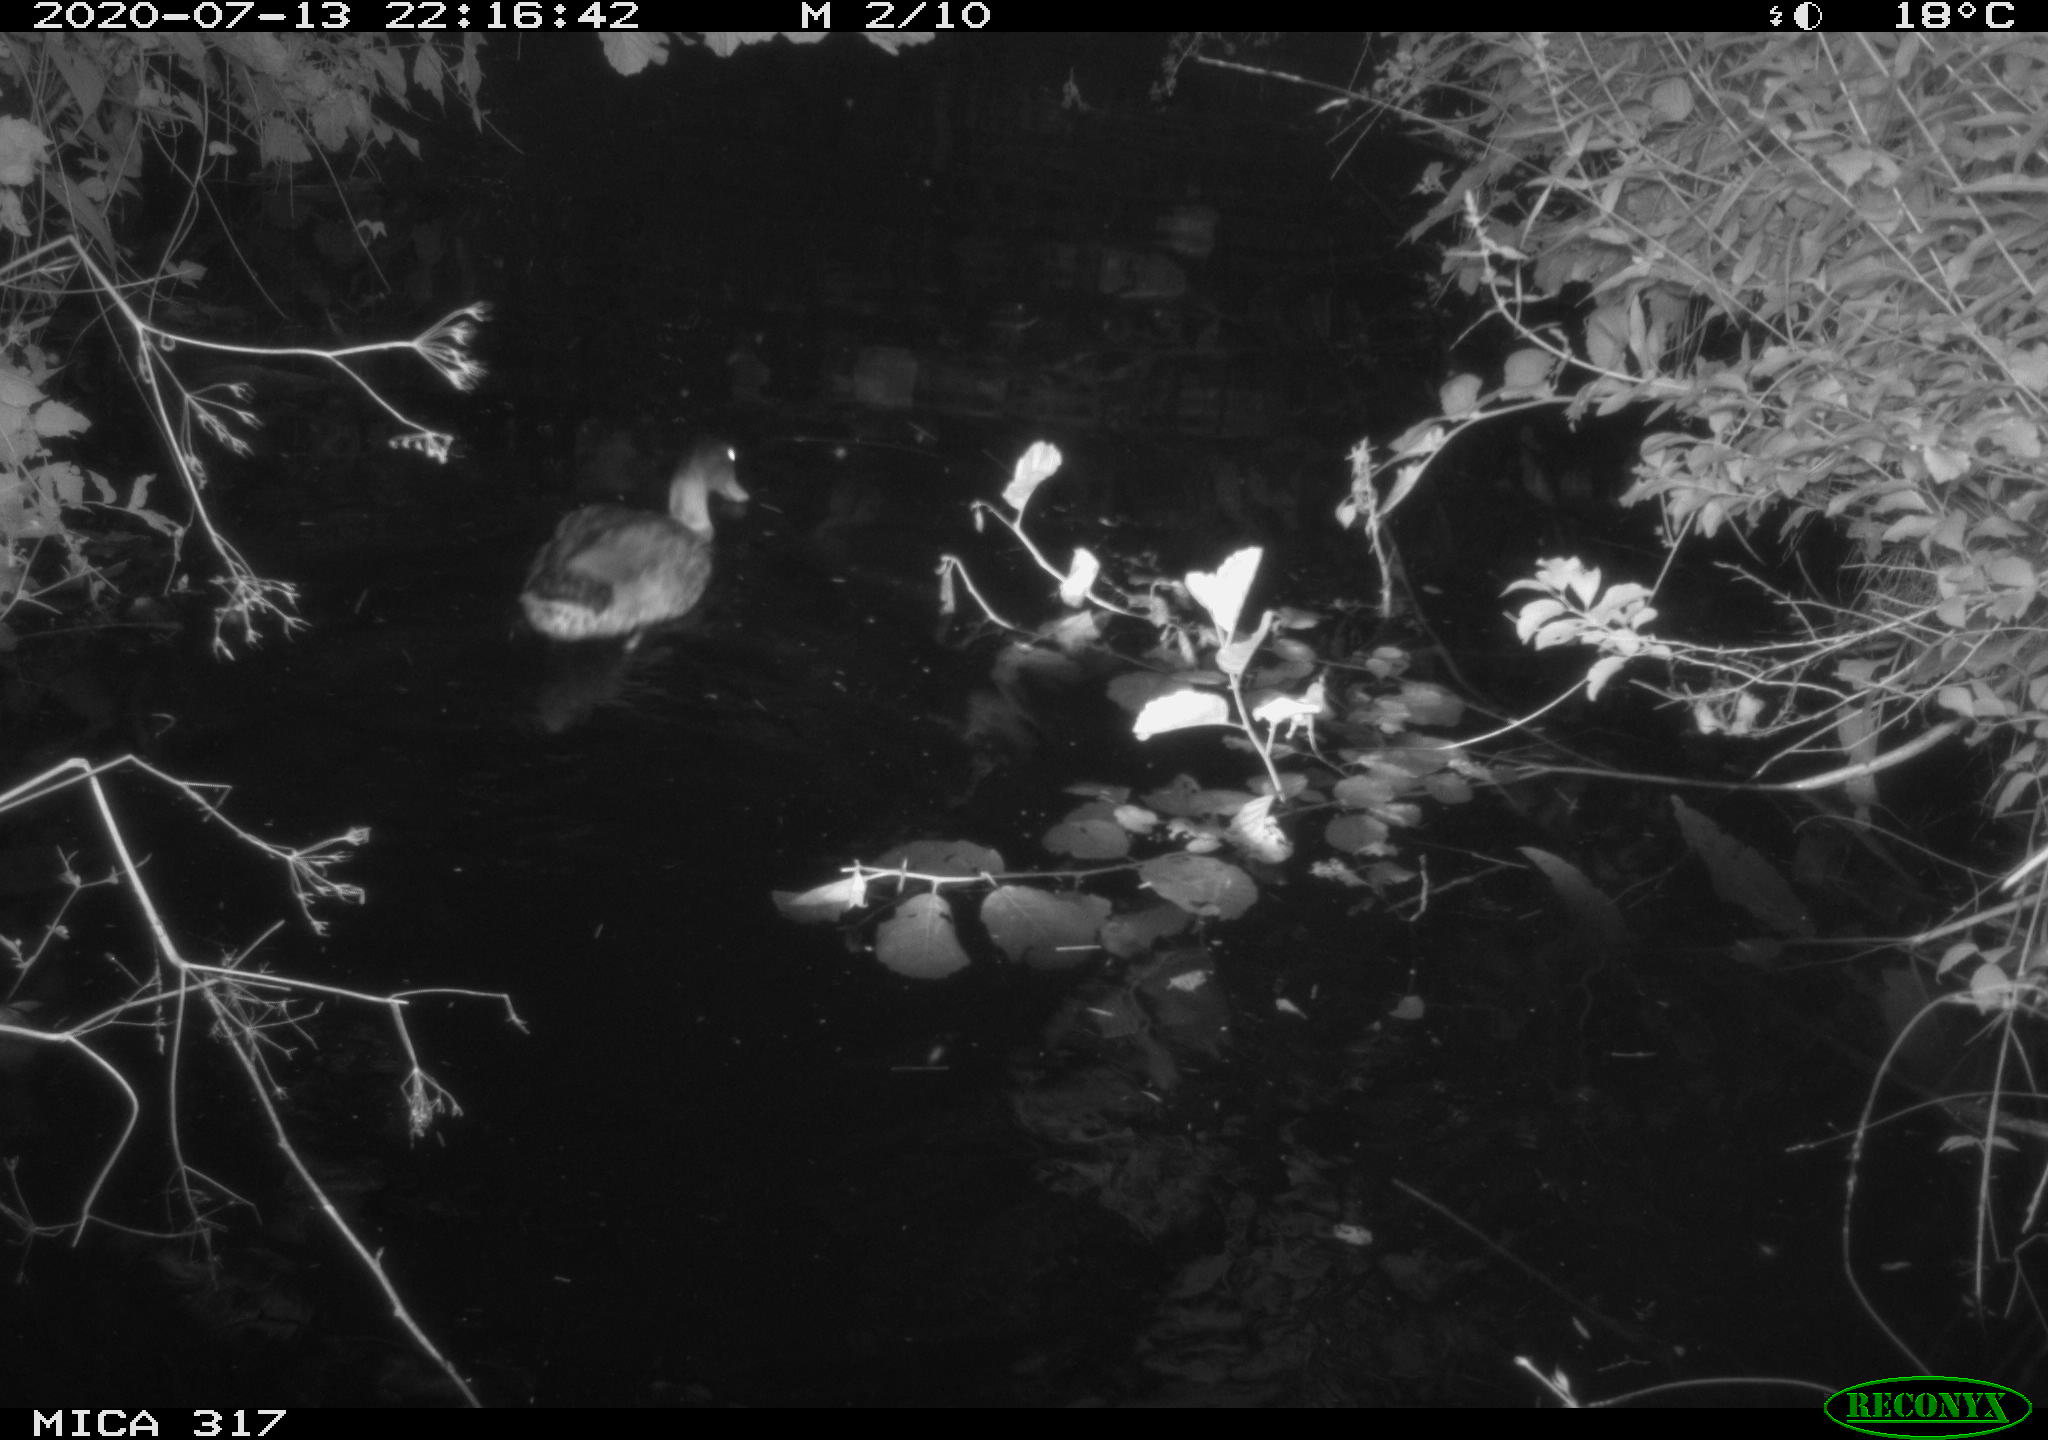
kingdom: Animalia
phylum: Chordata
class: Aves
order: Anseriformes
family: Anatidae
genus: Anas
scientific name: Anas platyrhynchos
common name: Mallard
